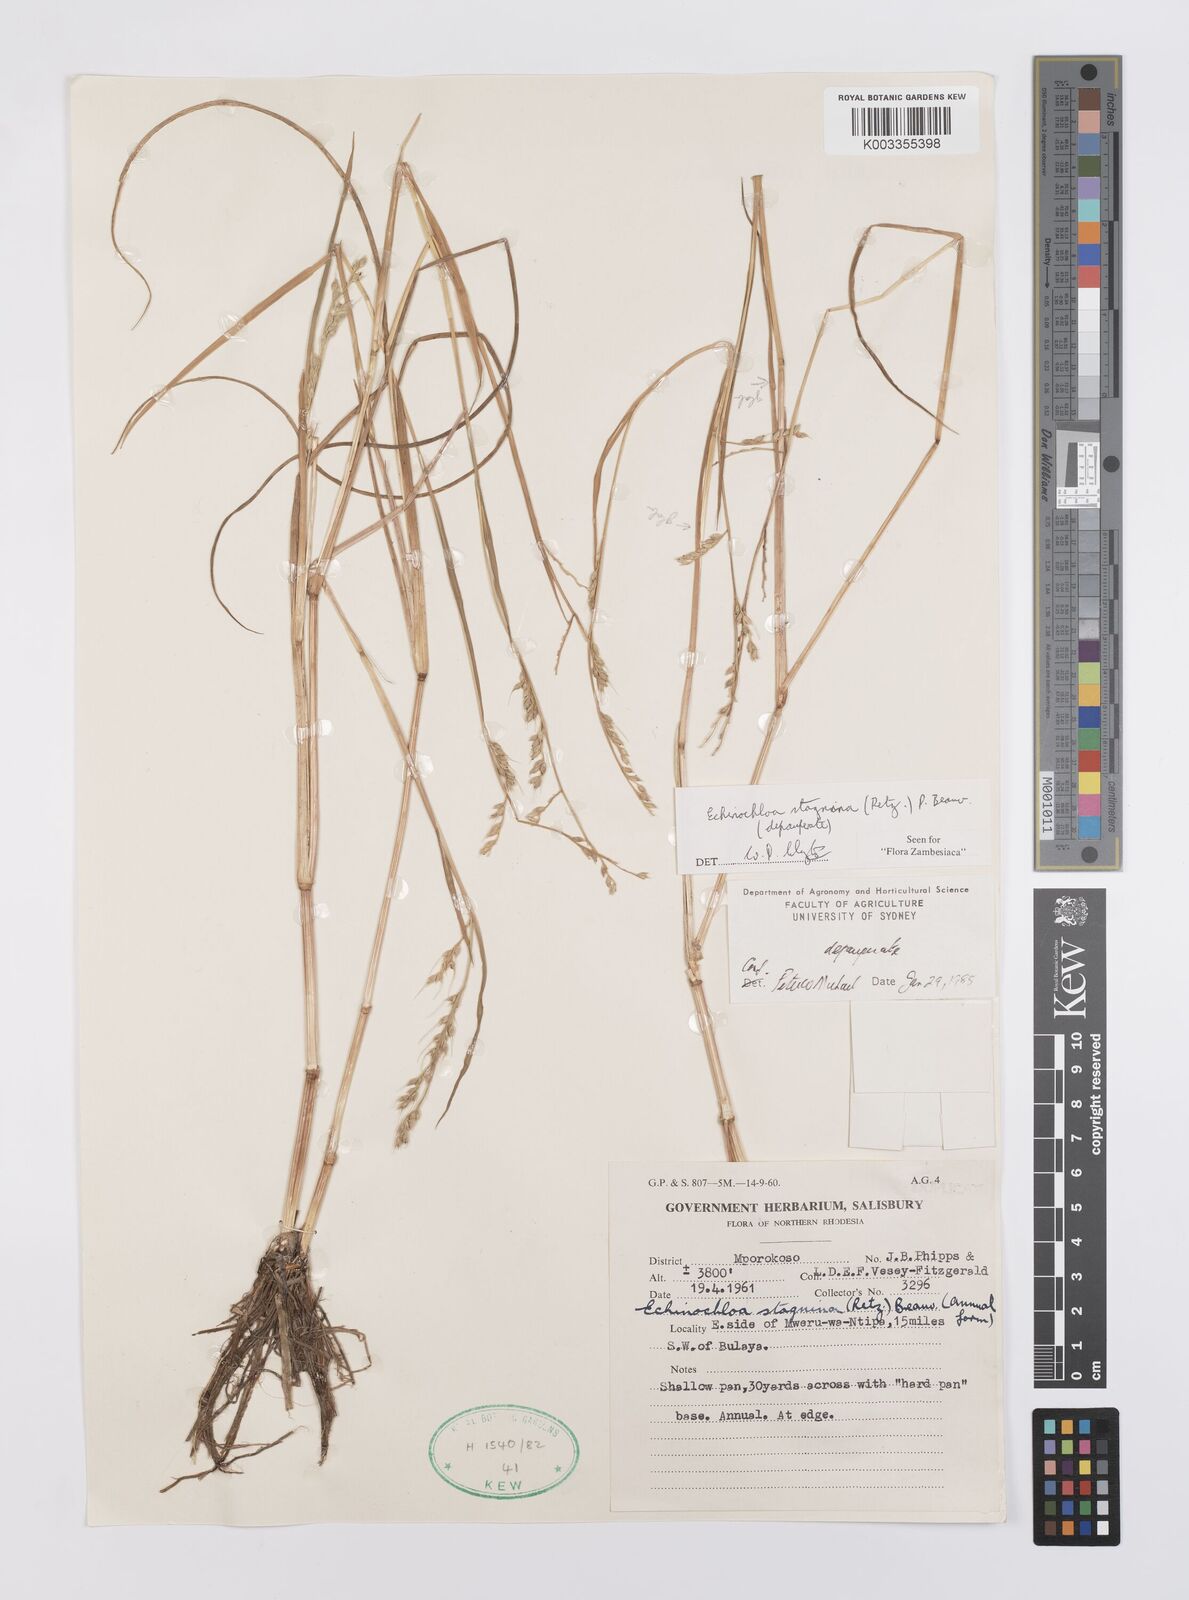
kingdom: Plantae
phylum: Tracheophyta
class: Liliopsida
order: Poales
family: Poaceae
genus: Echinochloa
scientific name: Echinochloa stagnina
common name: Burgu grass
